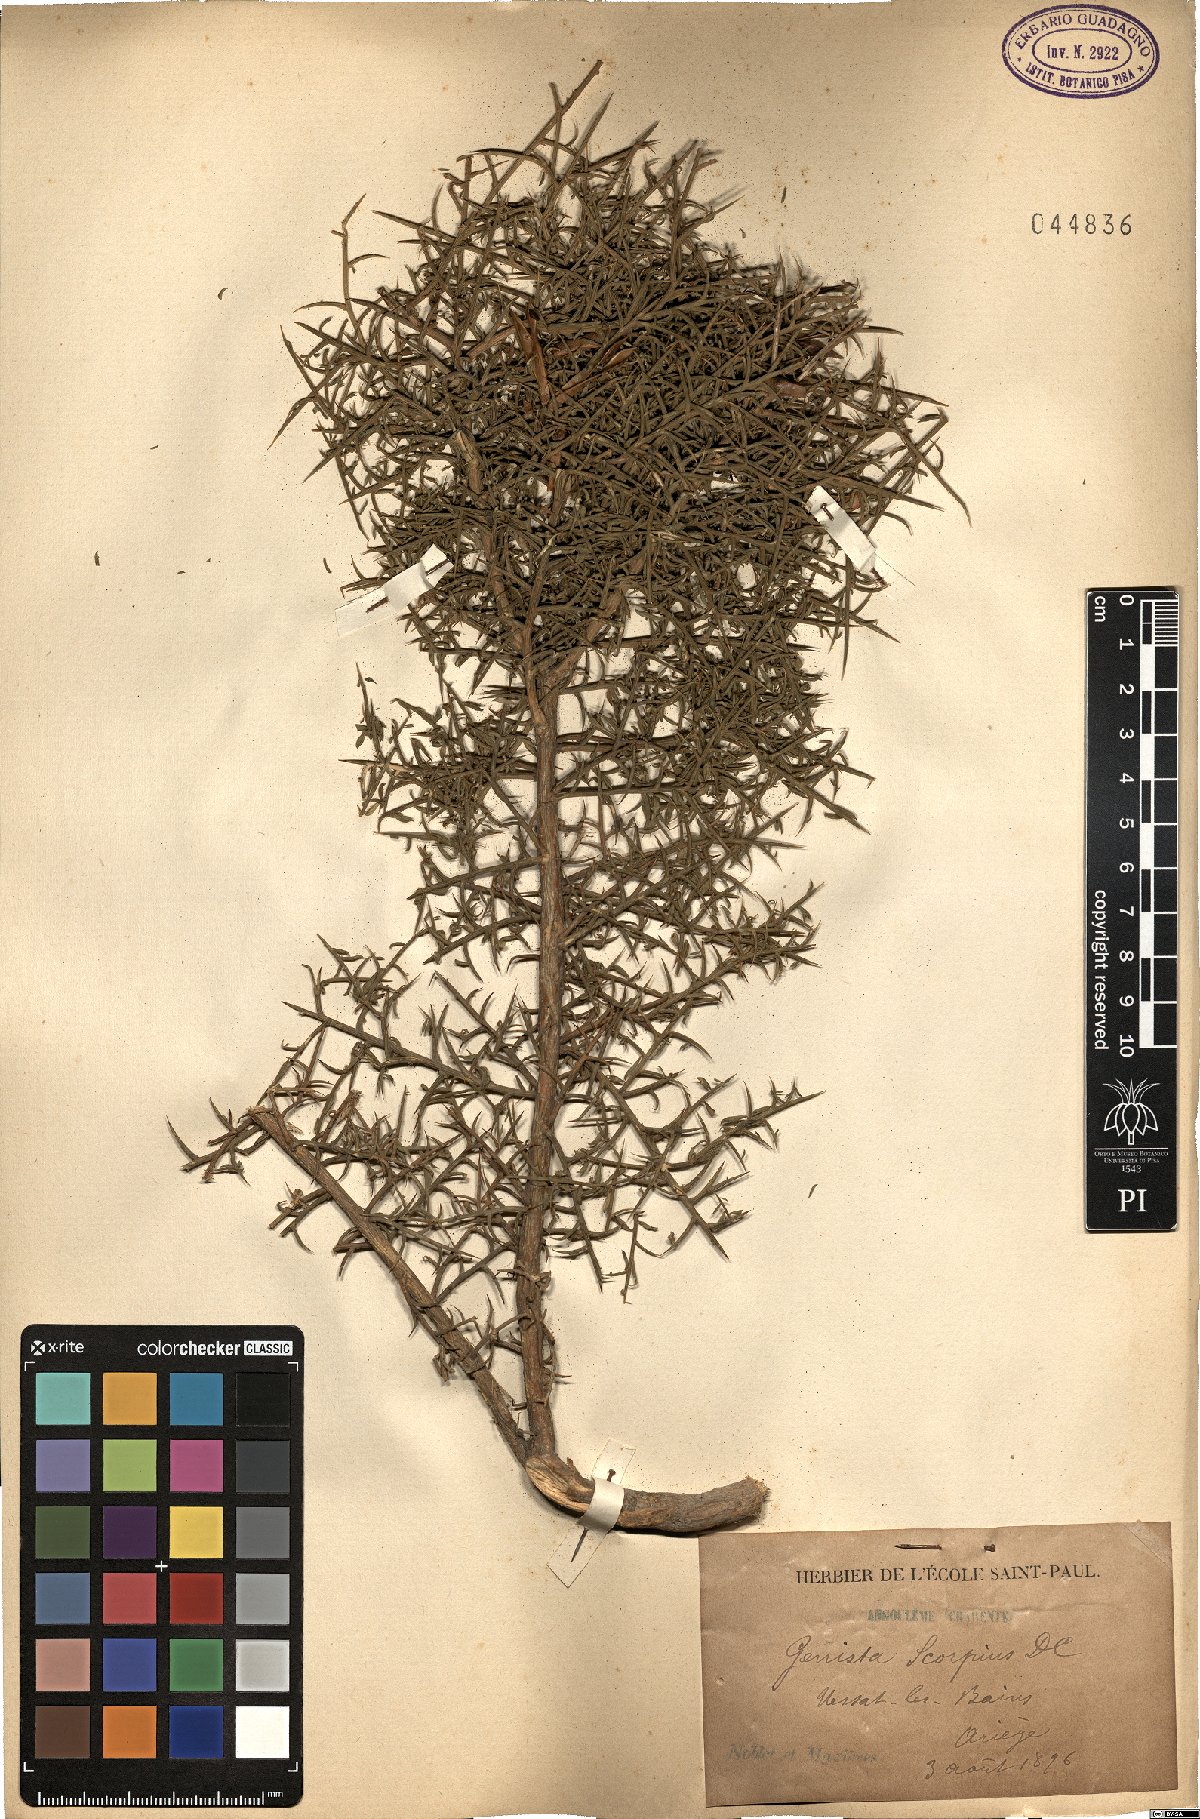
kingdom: Plantae
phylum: Tracheophyta
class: Magnoliopsida
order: Fabales
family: Fabaceae
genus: Genista
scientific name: Genista scorpius
